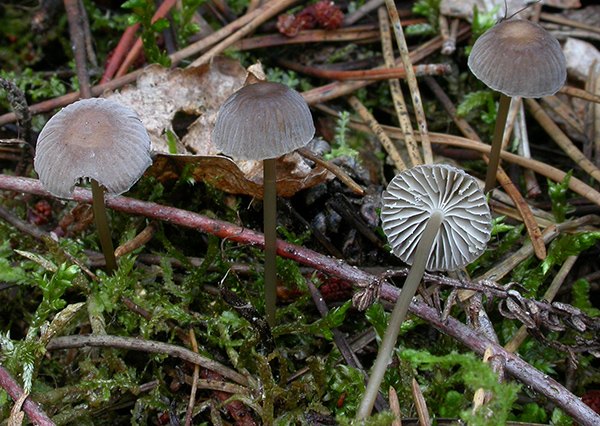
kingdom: Fungi
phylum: Basidiomycota
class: Agaricomycetes
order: Agaricales
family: Mycenaceae
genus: Mycena
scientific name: Mycena clavicularis
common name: fyrre-huesvamp
